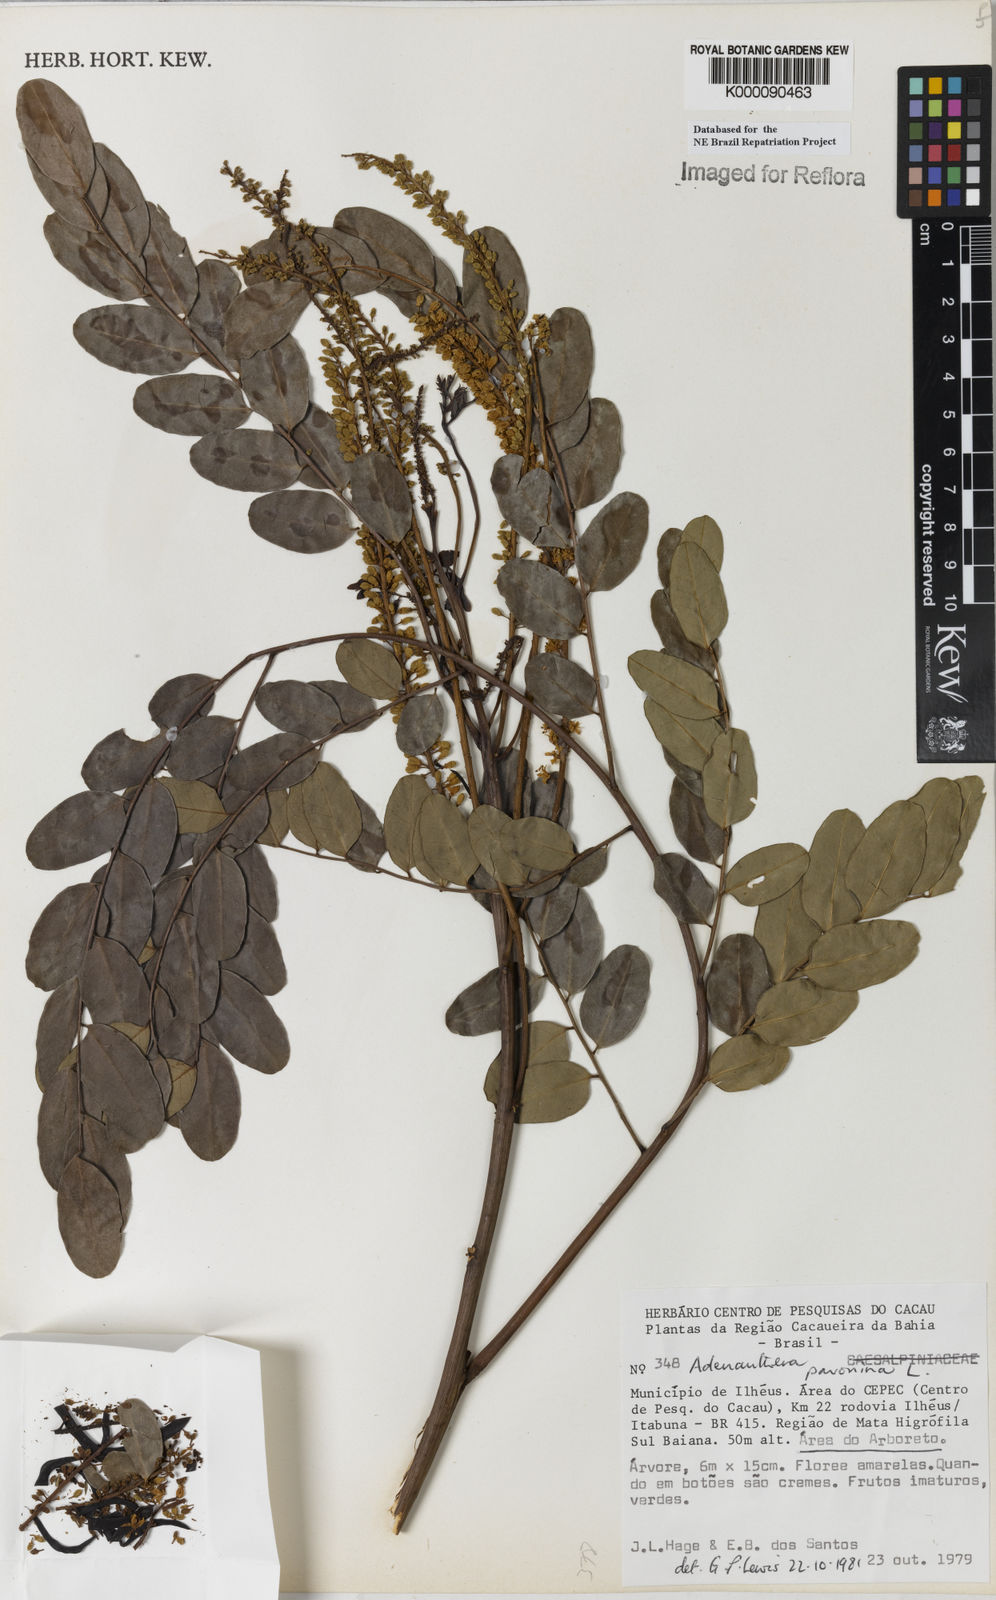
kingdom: Plantae
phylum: Tracheophyta
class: Magnoliopsida
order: Fabales
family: Fabaceae
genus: Adenanthera
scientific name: Adenanthera pavonina
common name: Red beadtree
